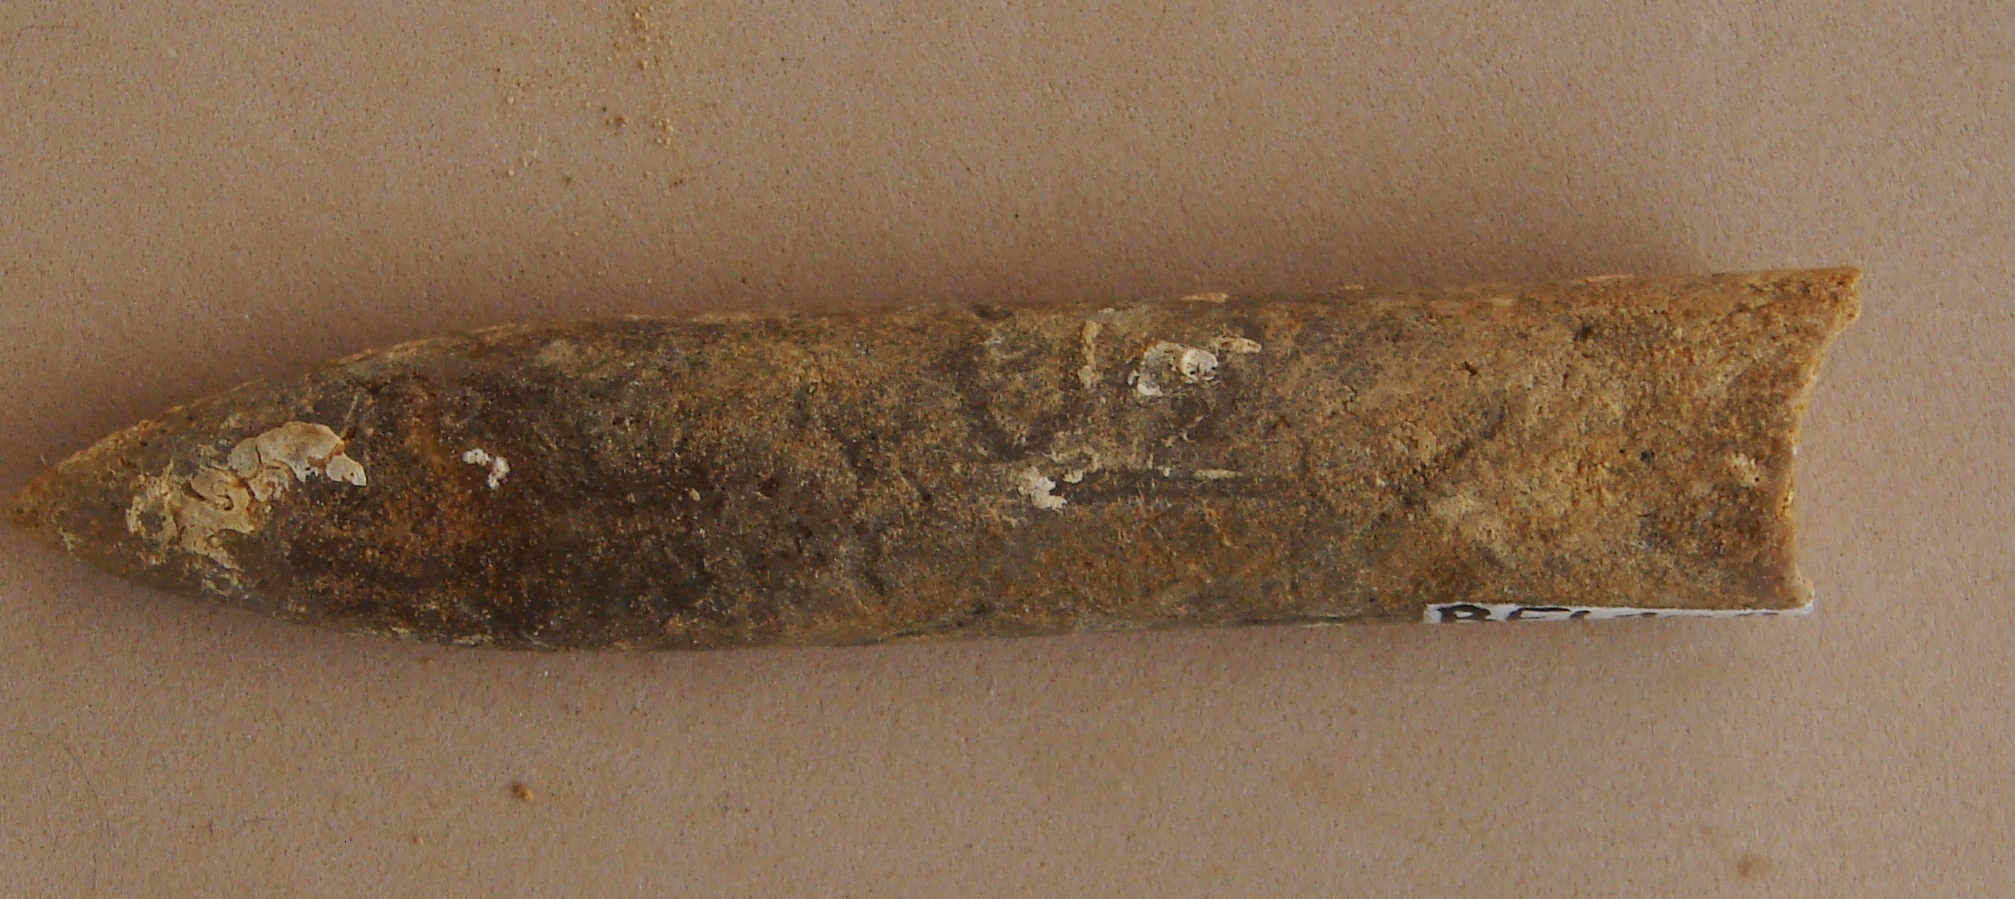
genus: Pachybelemnopsis
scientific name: Pachybelemnopsis
